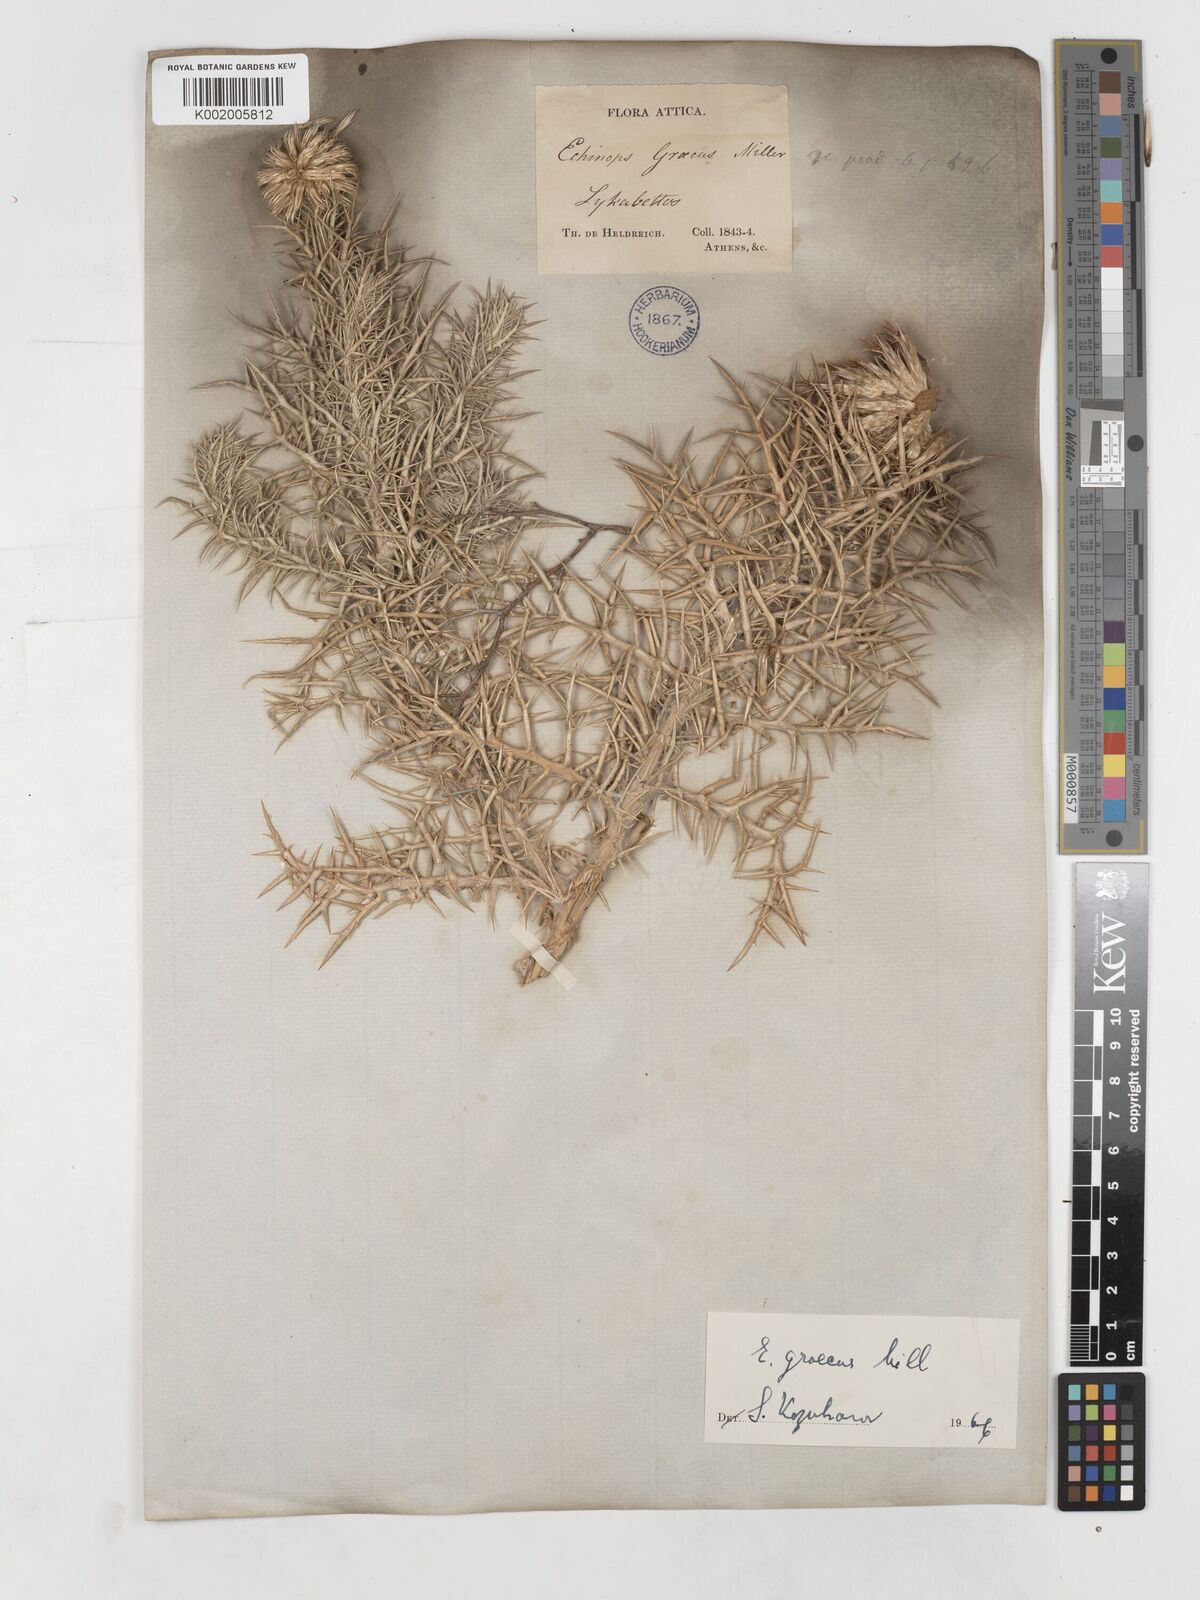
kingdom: Plantae
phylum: Tracheophyta
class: Magnoliopsida
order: Asterales
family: Asteraceae
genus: Echinops
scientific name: Echinops graecus
